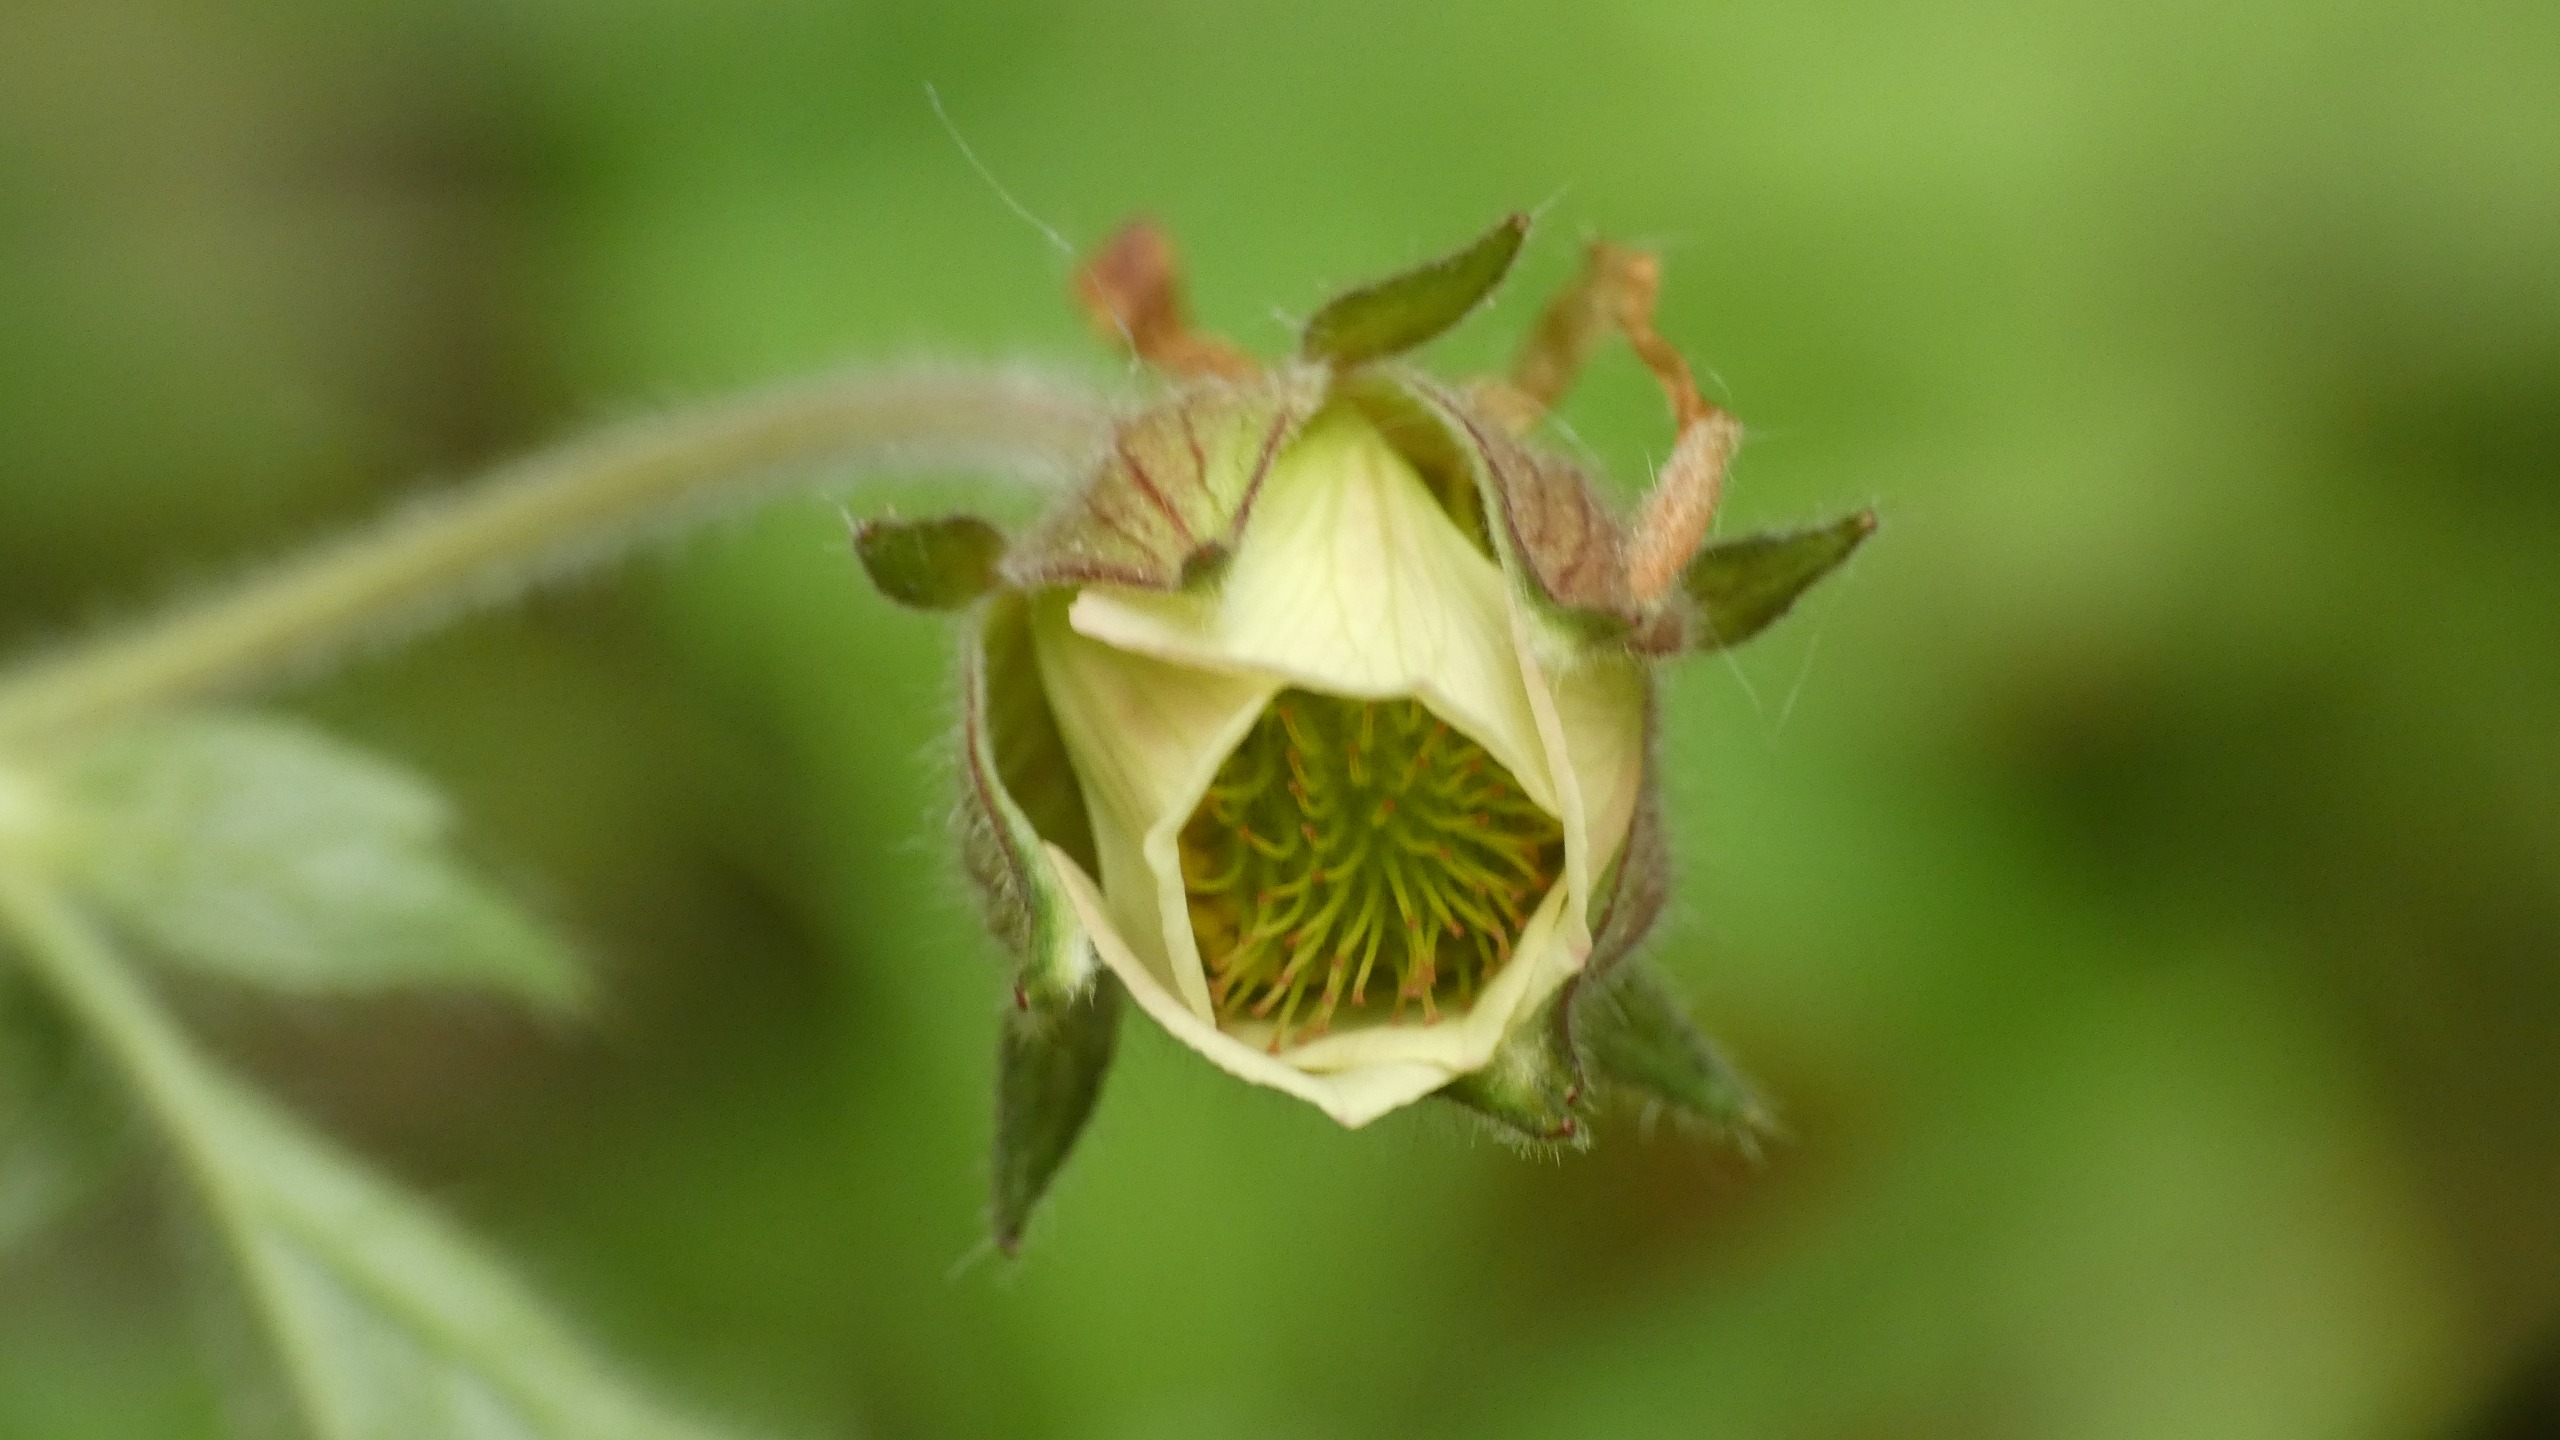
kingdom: Plantae
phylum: Tracheophyta
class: Magnoliopsida
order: Rosales
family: Rosaceae
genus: Geum
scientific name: Geum rivale
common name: Eng-nellikerod
